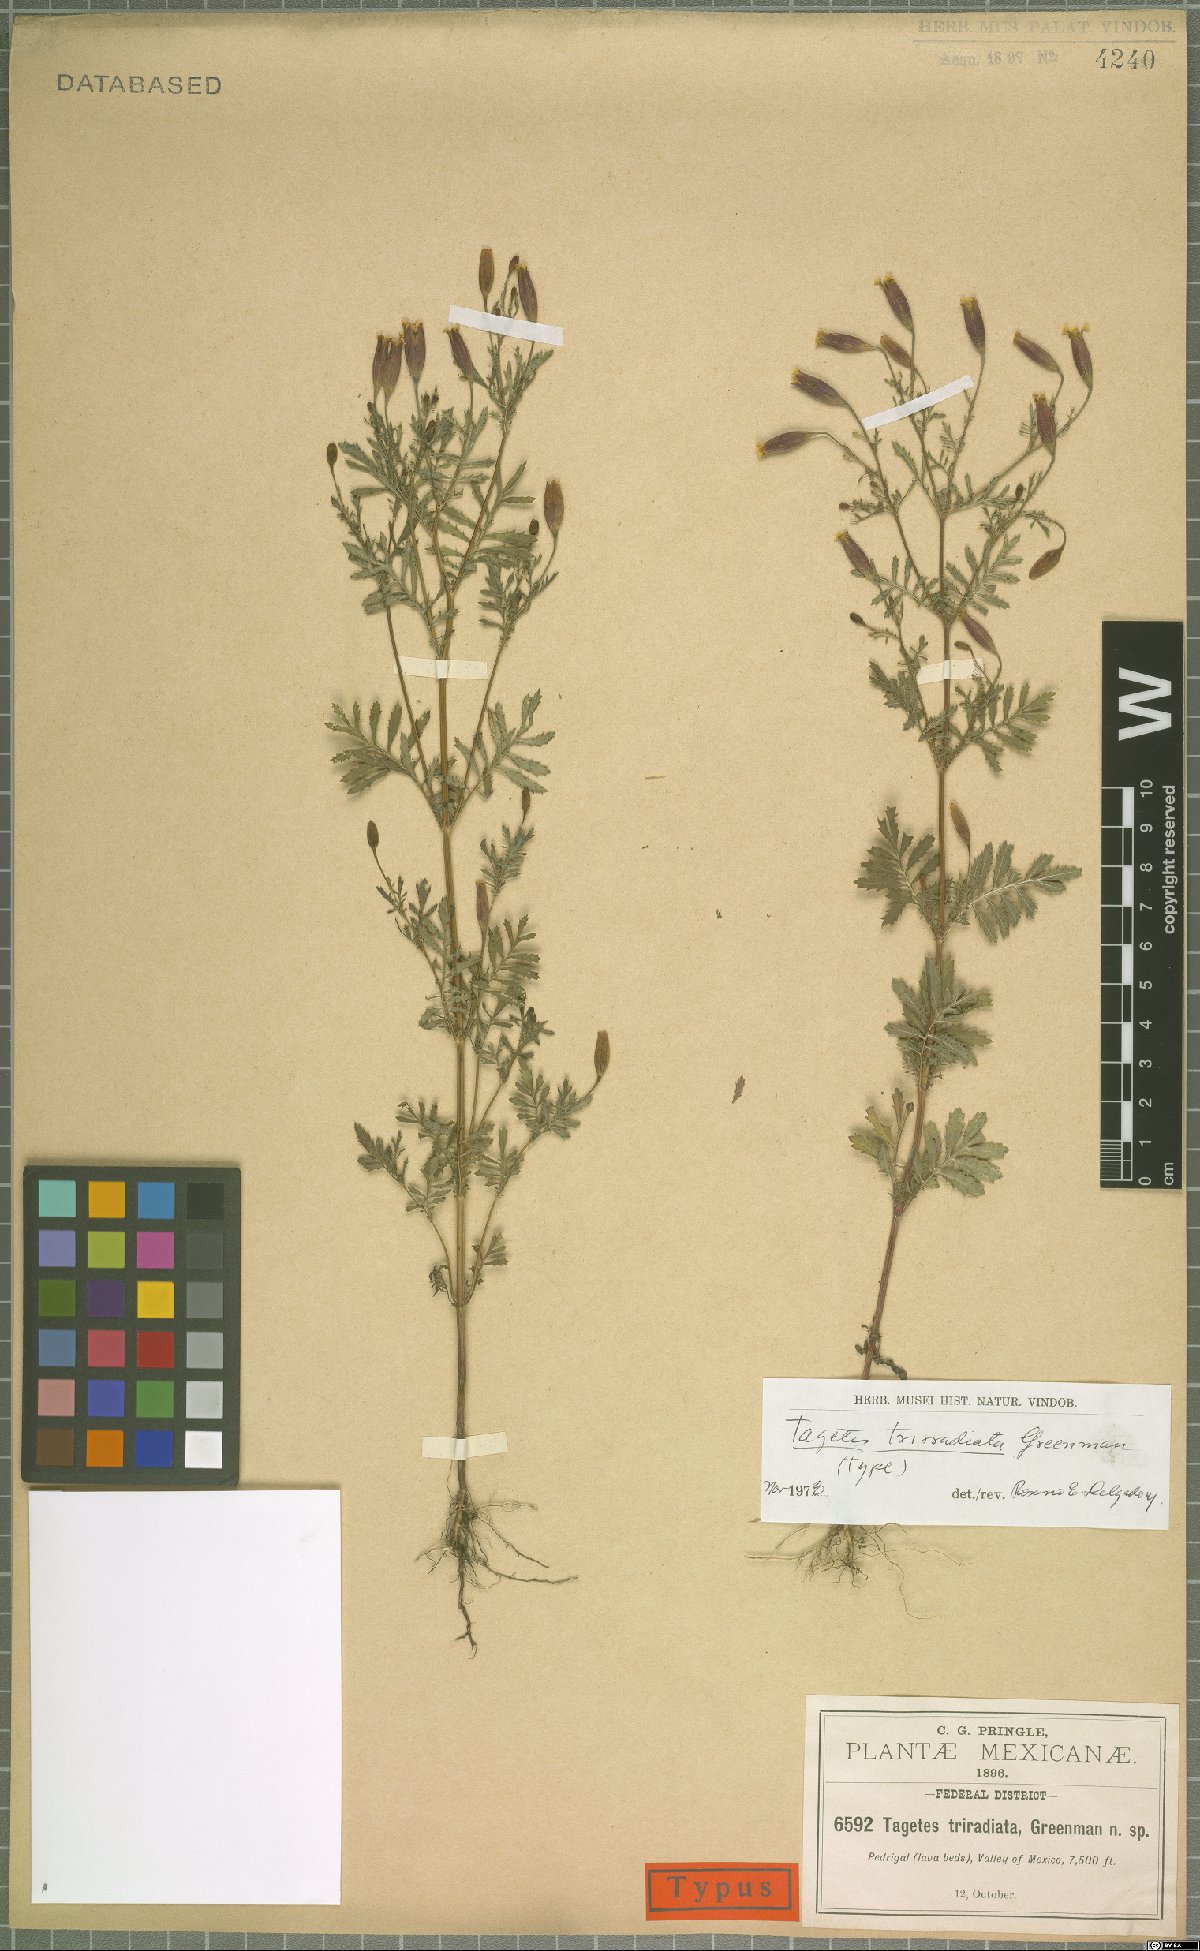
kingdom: Plantae
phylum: Tracheophyta
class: Magnoliopsida
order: Asterales
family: Asteraceae
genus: Tagetes
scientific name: Tagetes triradiata
